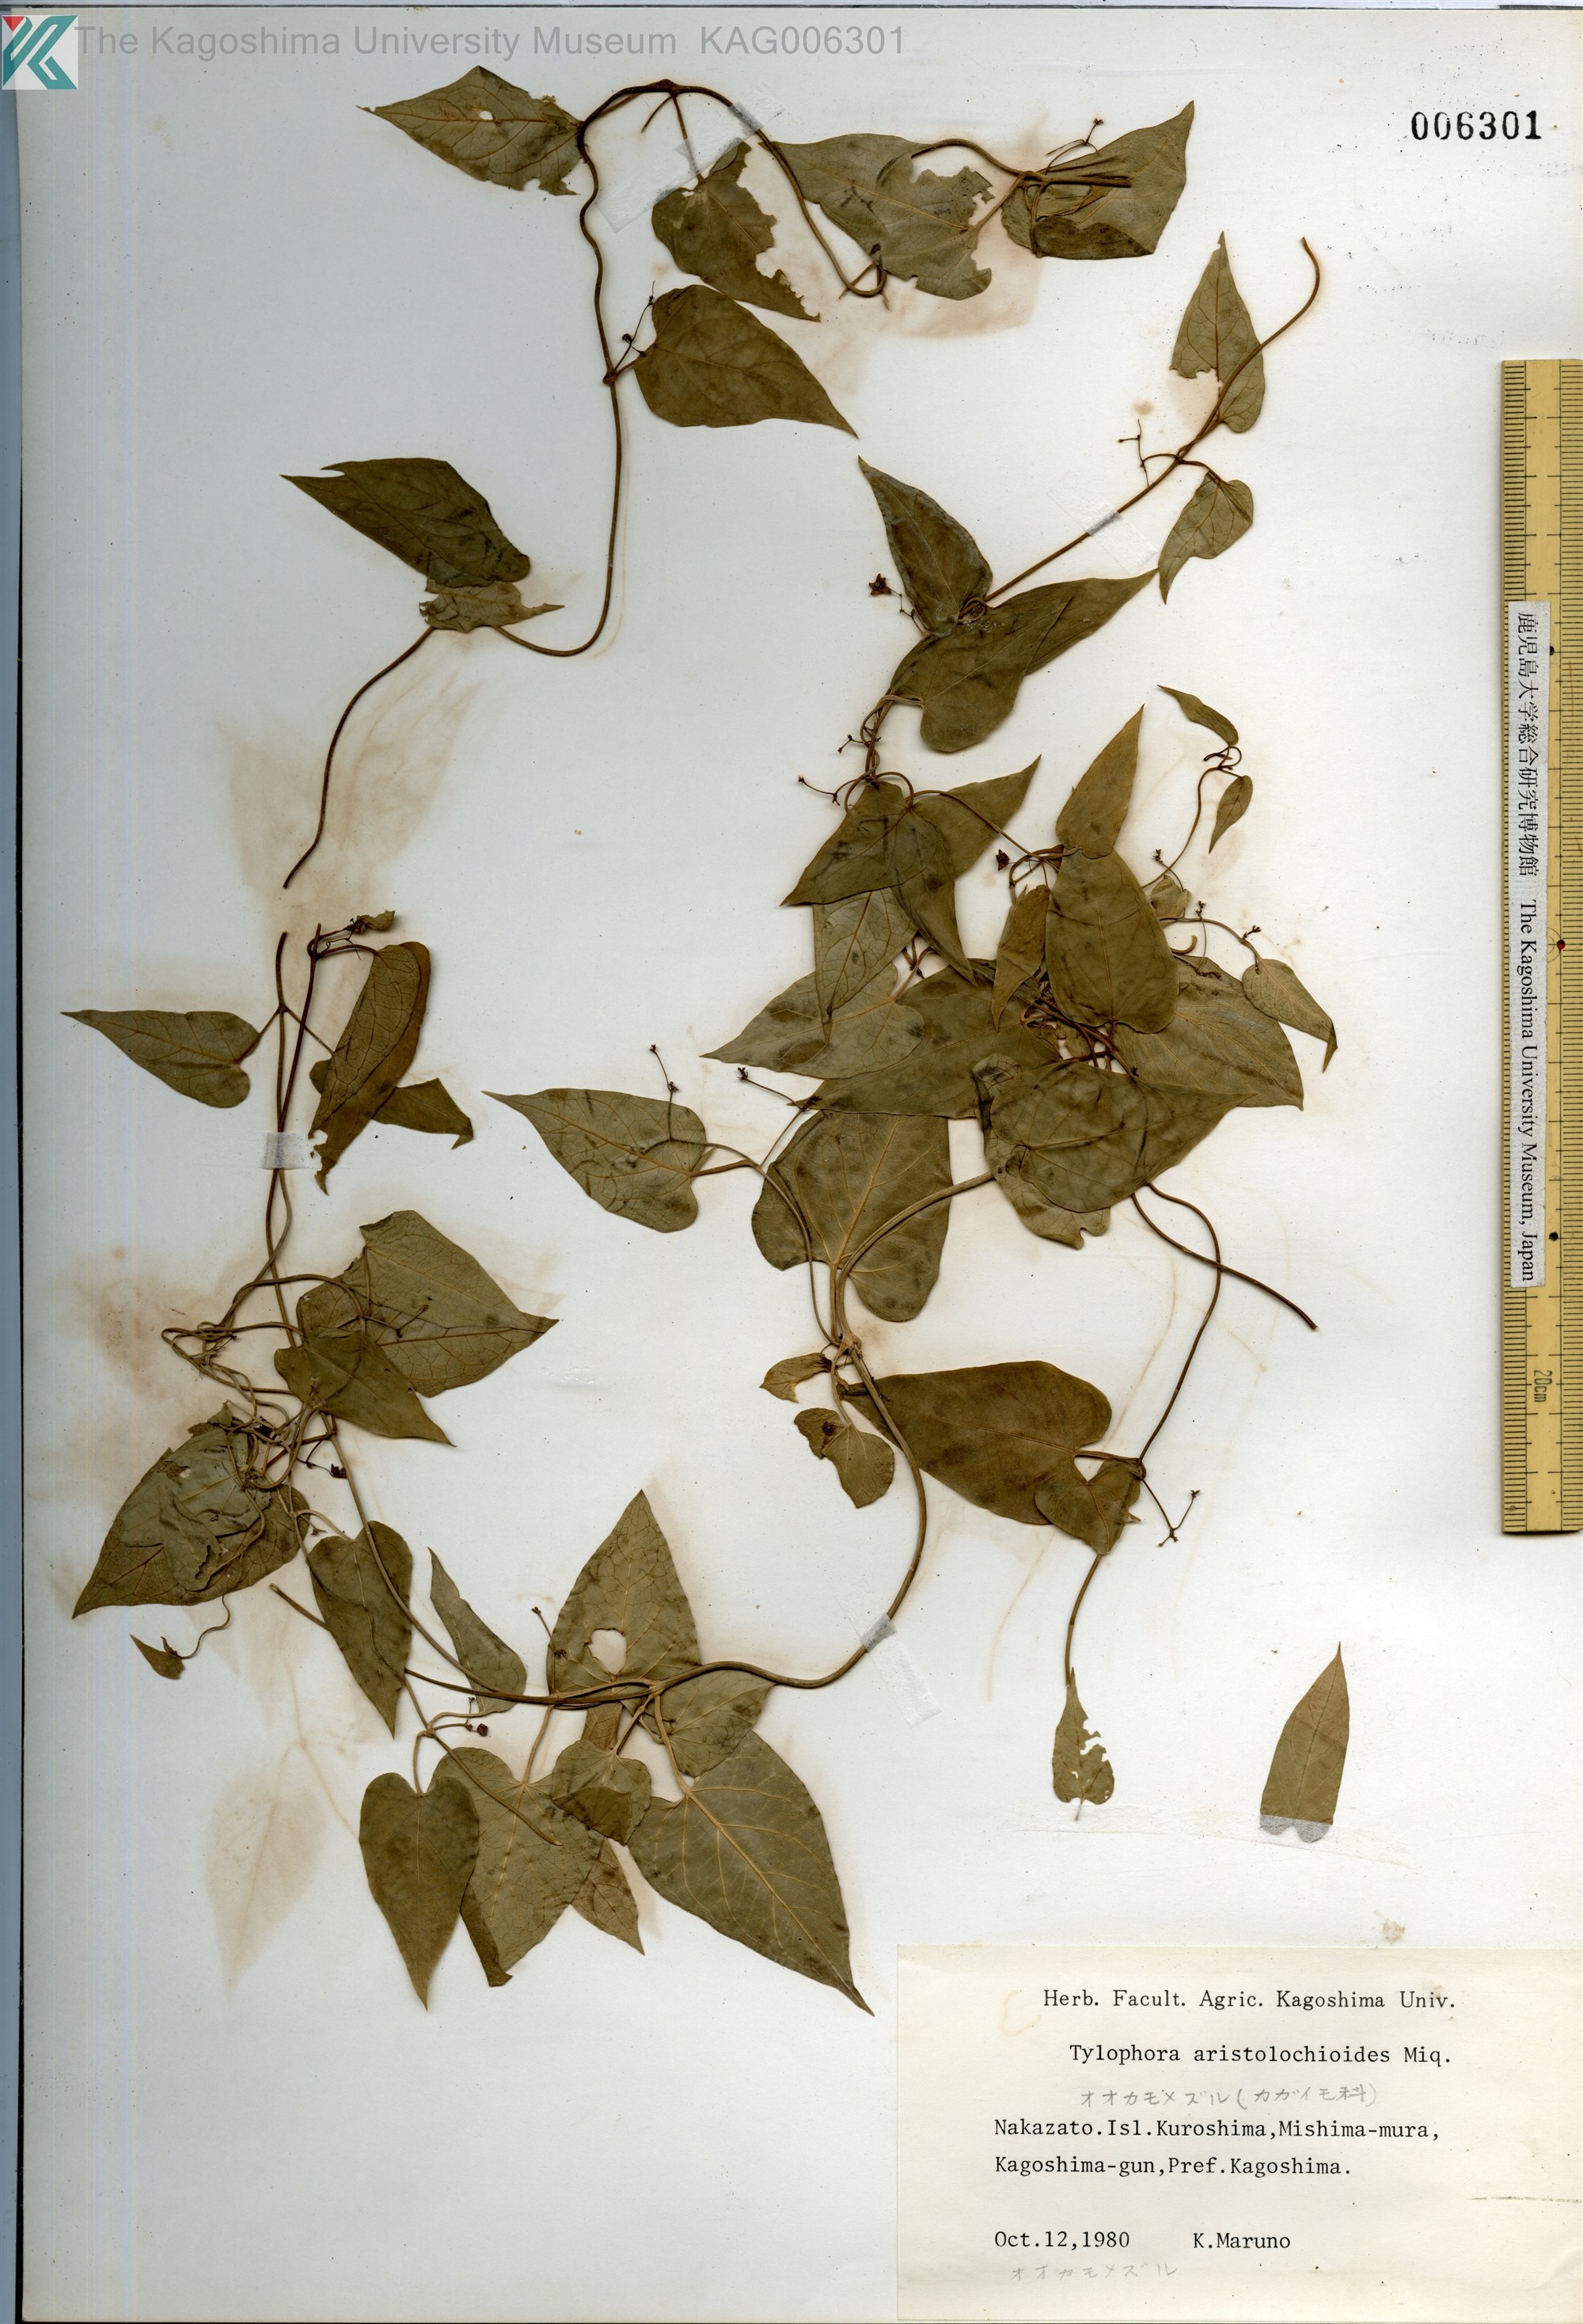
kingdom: Plantae
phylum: Tracheophyta
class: Magnoliopsida
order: Gentianales
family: Apocynaceae
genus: Vincetoxicum
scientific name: Vincetoxicum aristolochioides
